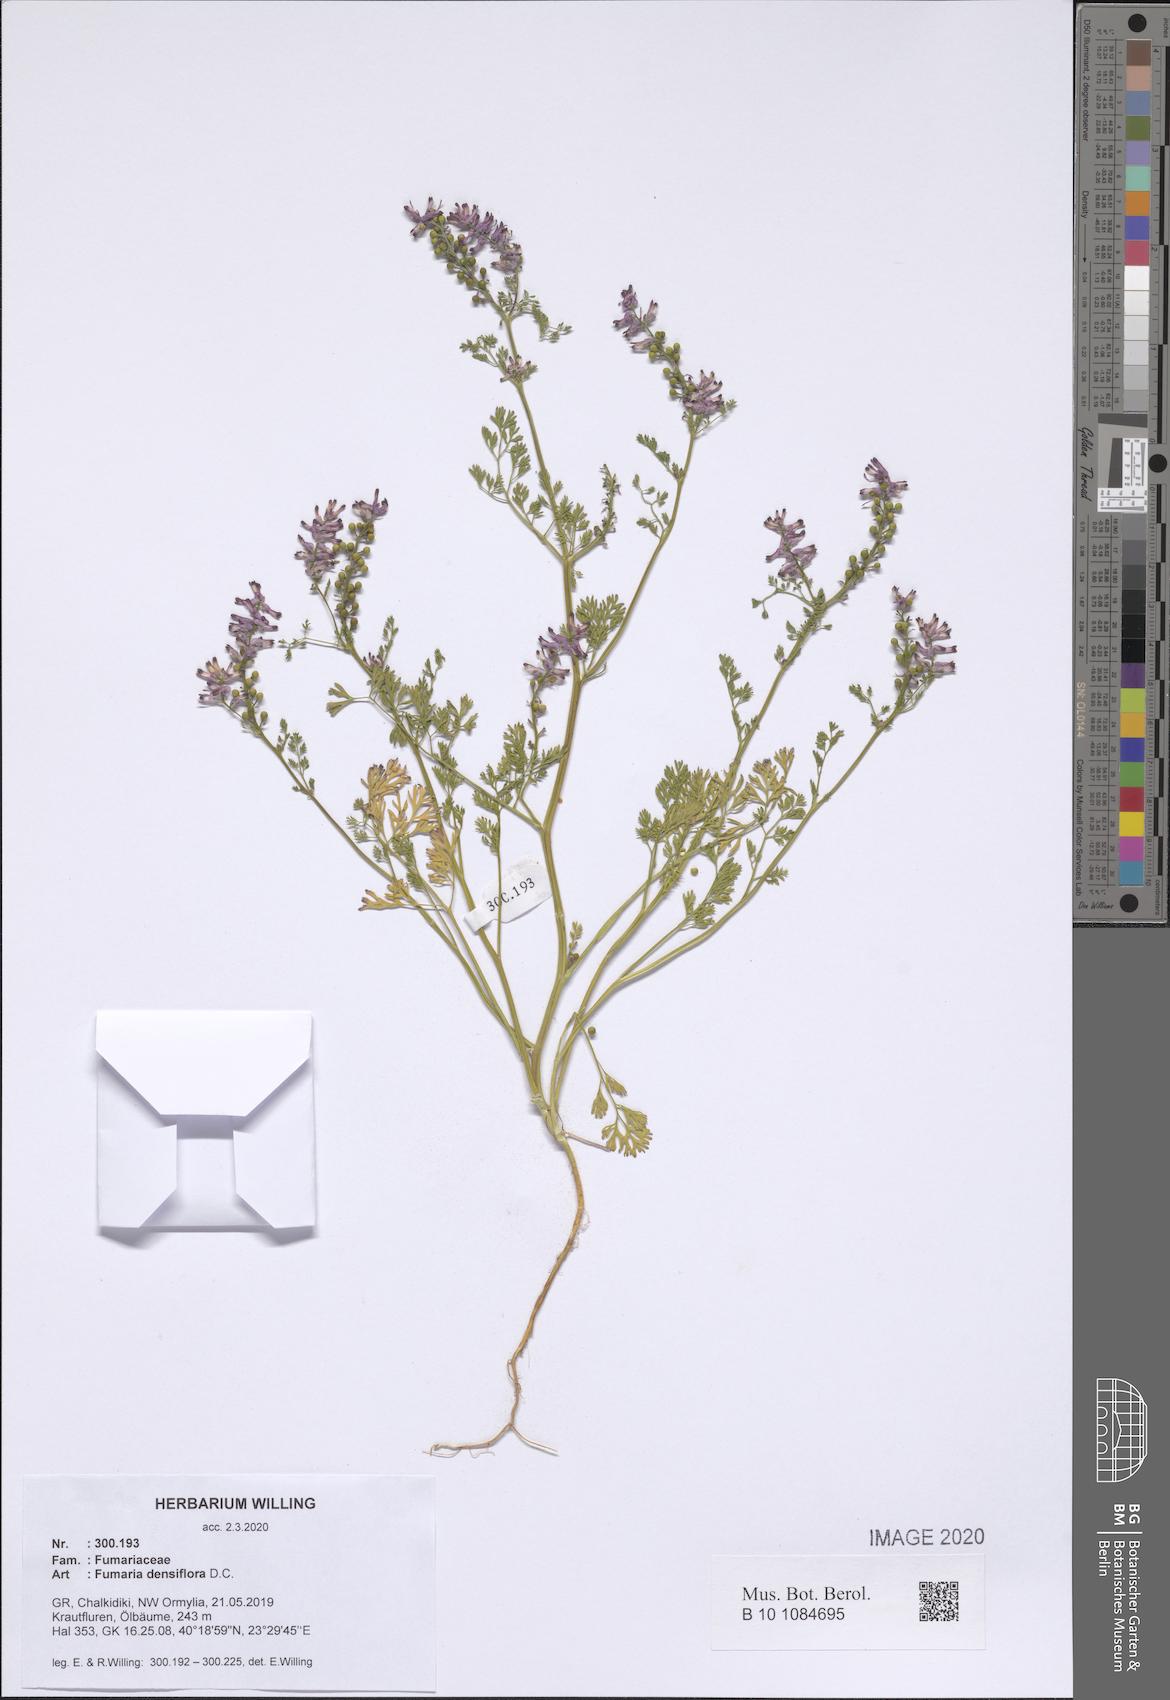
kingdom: Plantae
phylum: Tracheophyta
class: Magnoliopsida
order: Ranunculales
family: Papaveraceae
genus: Fumaria
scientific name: Fumaria densiflora
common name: Dense-flowered fumitory
